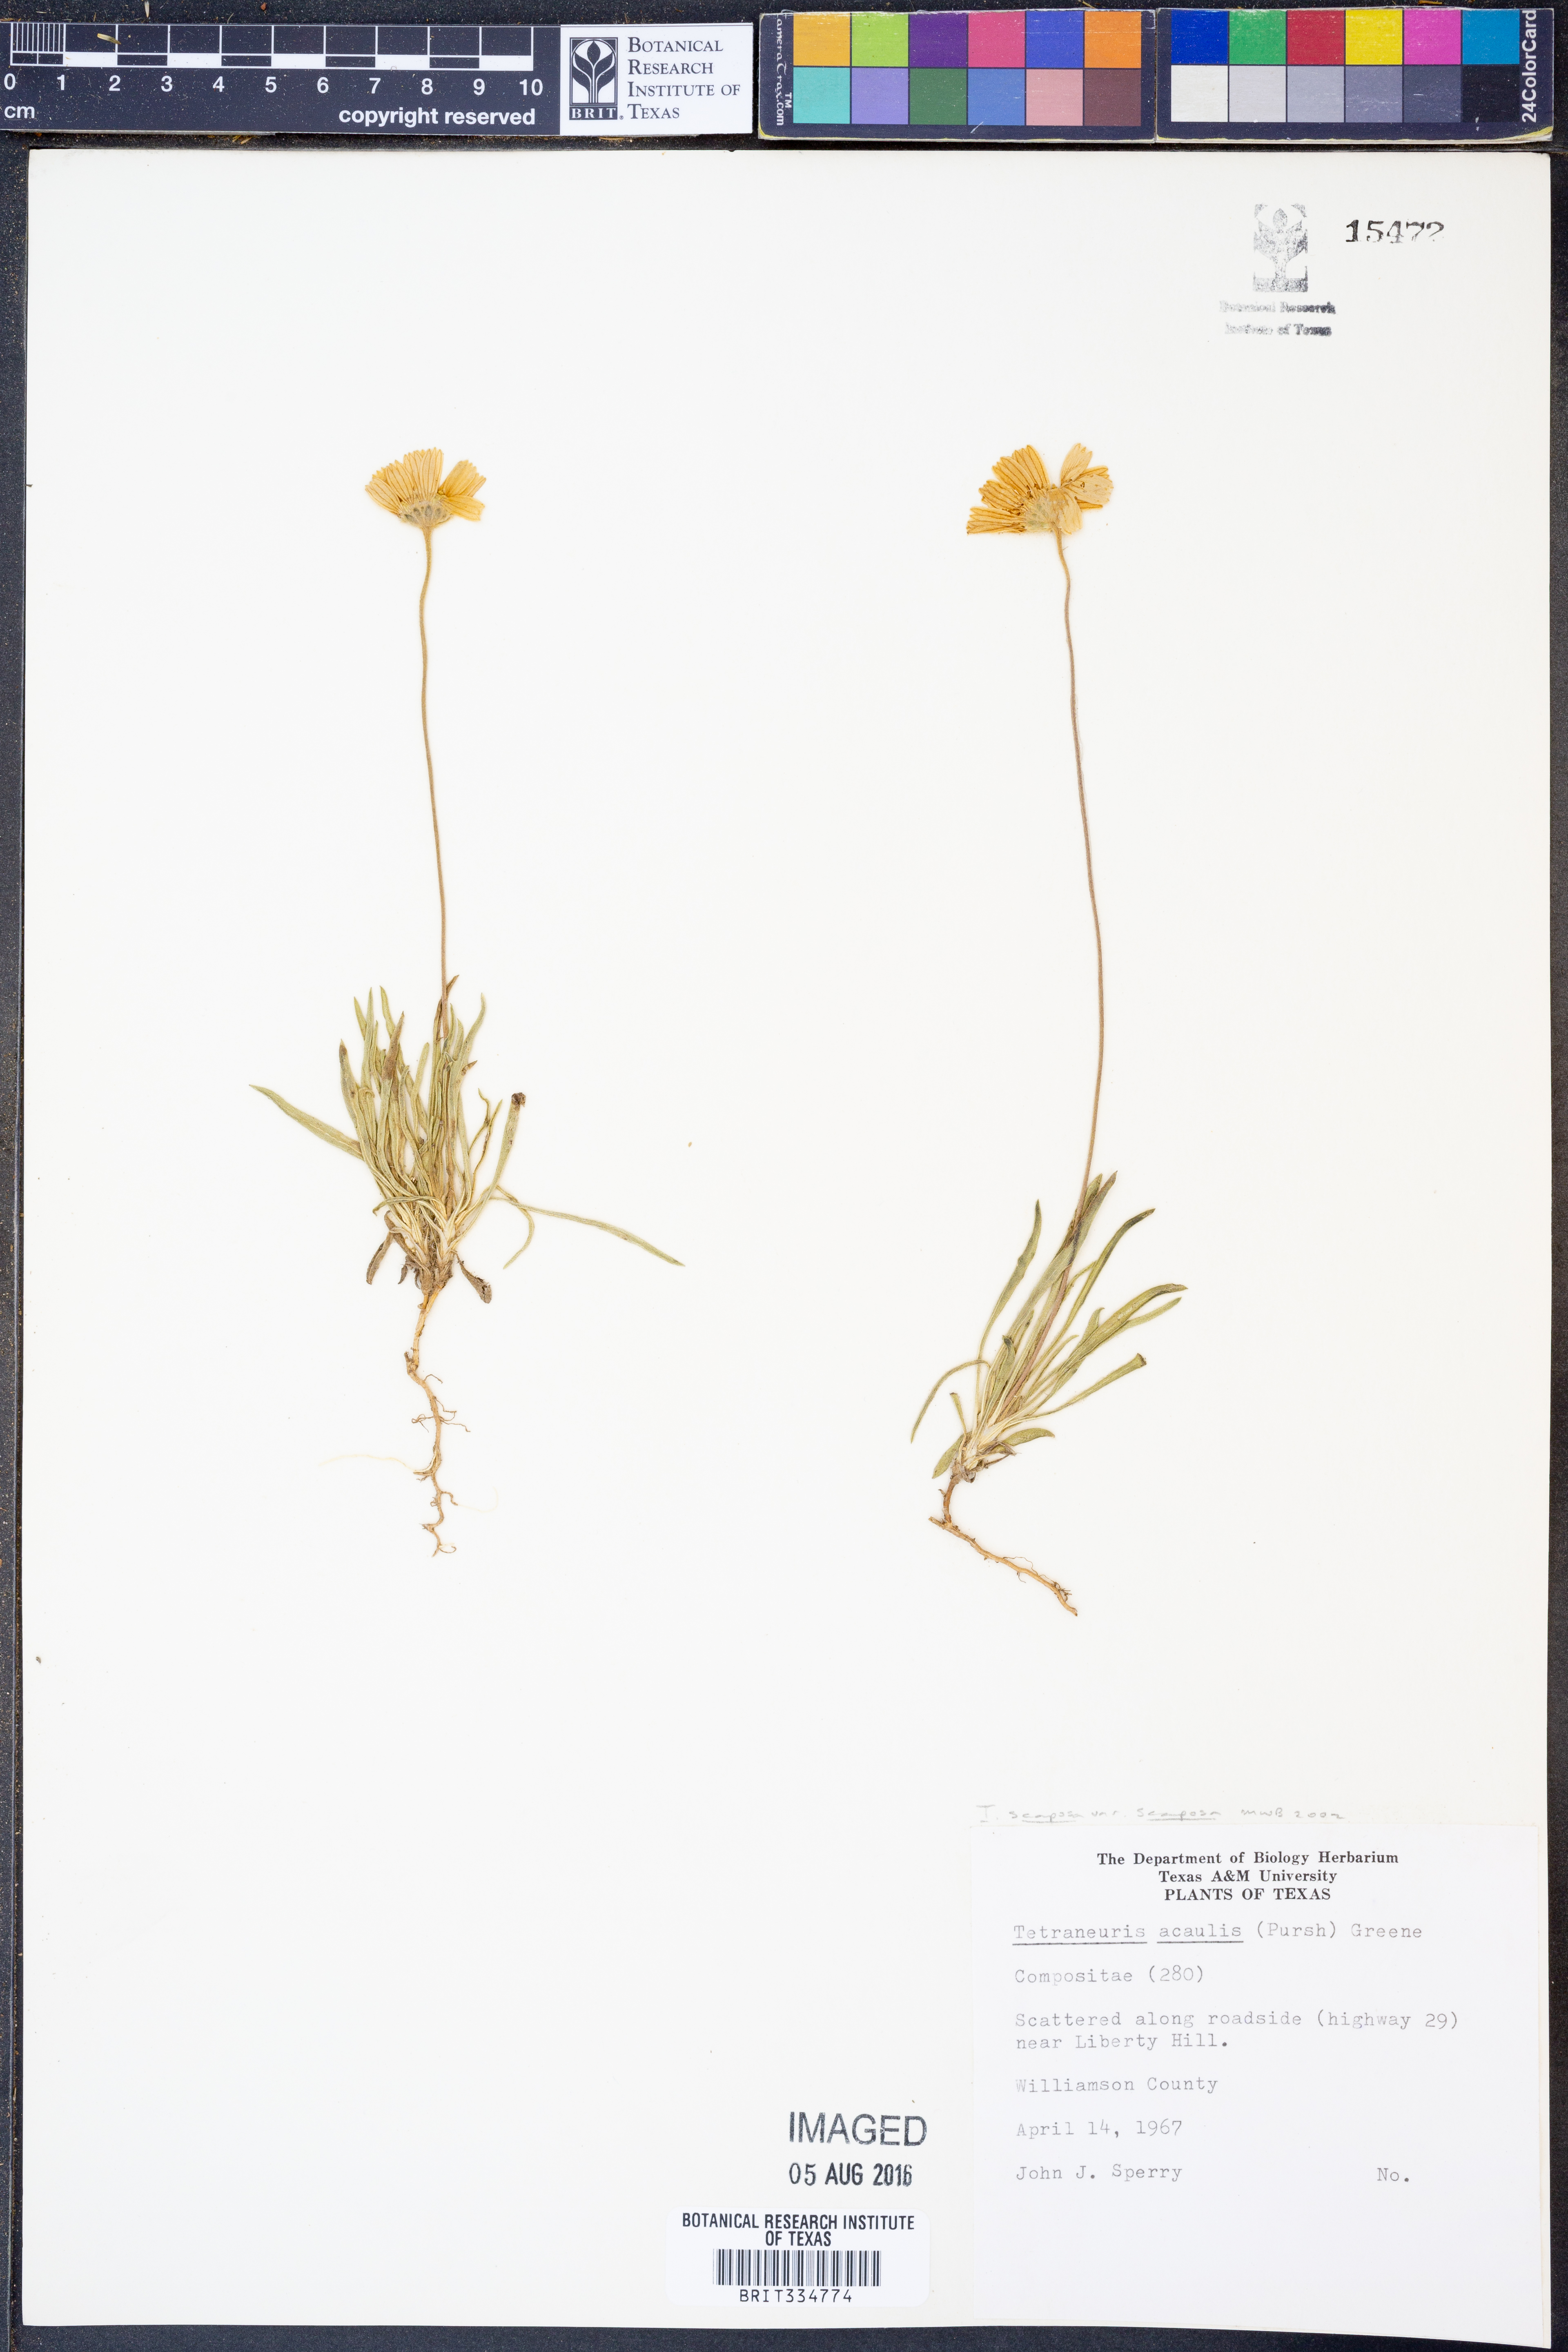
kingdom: Plantae
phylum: Tracheophyta
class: Magnoliopsida
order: Asterales
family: Asteraceae
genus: Tetraneuris
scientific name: Tetraneuris scaposa
